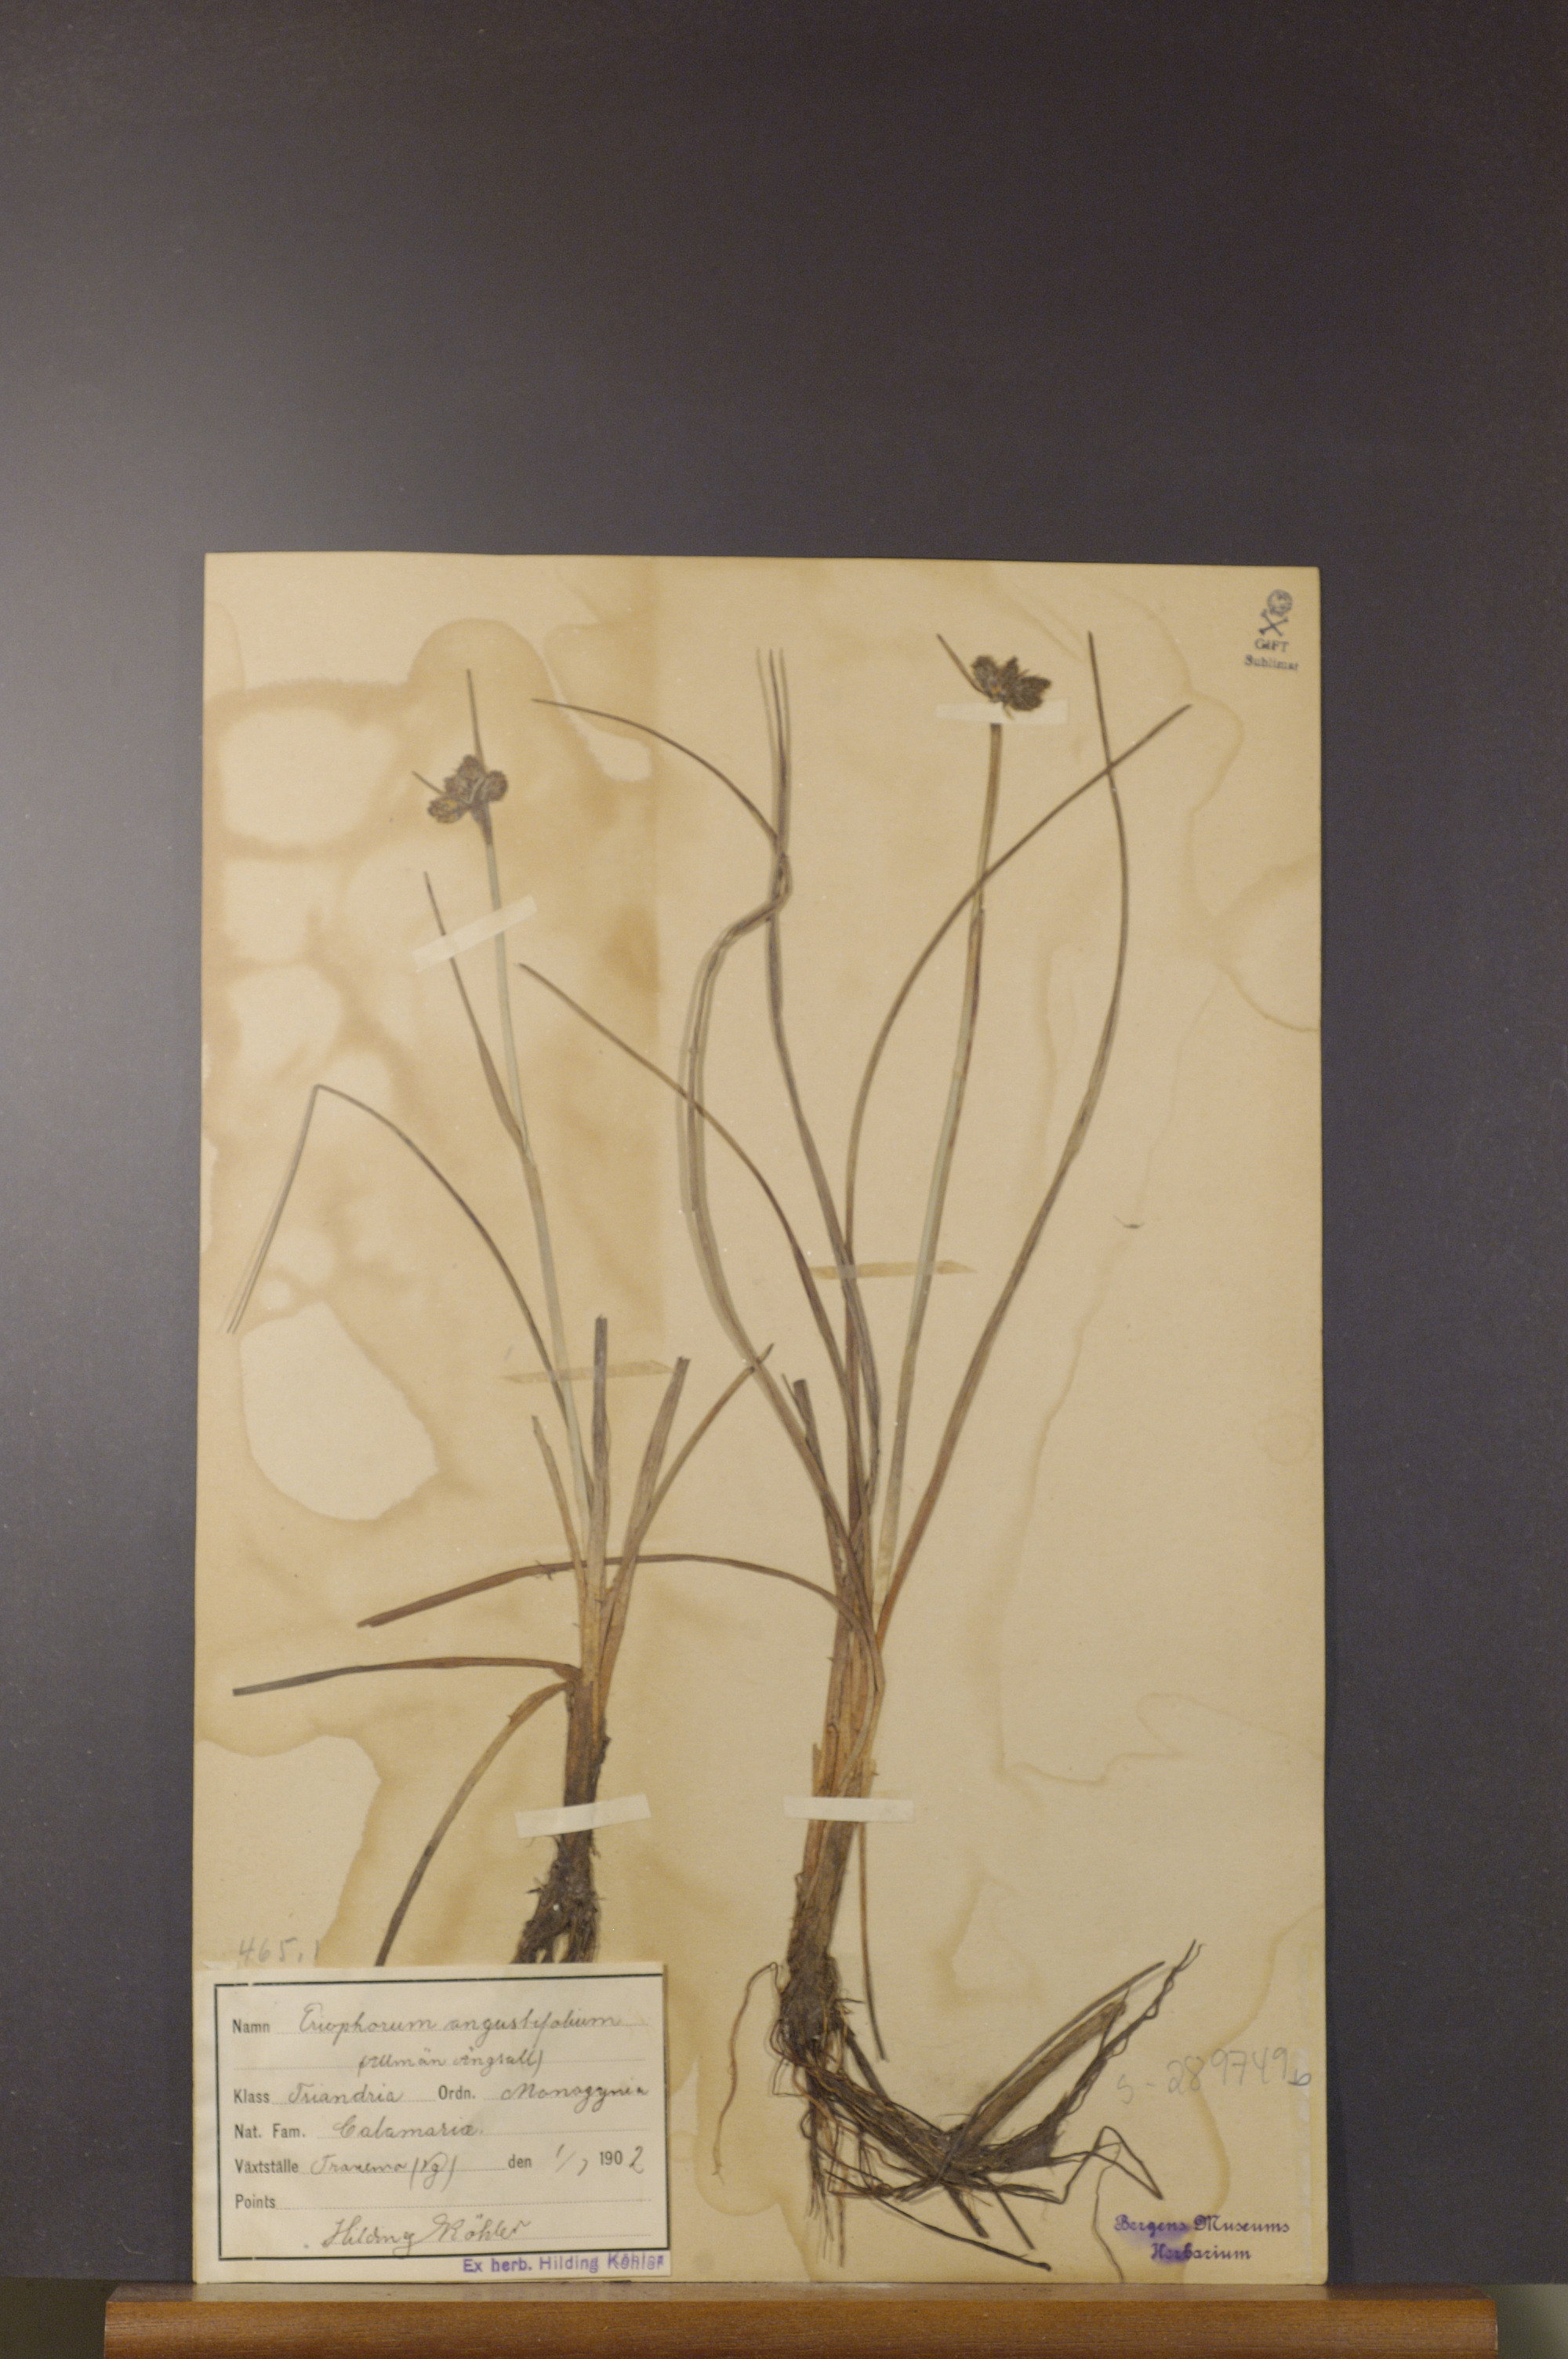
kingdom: Plantae
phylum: Tracheophyta
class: Liliopsida
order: Poales
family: Cyperaceae
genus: Eriophorum
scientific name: Eriophorum angustifolium
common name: Common cottongrass
